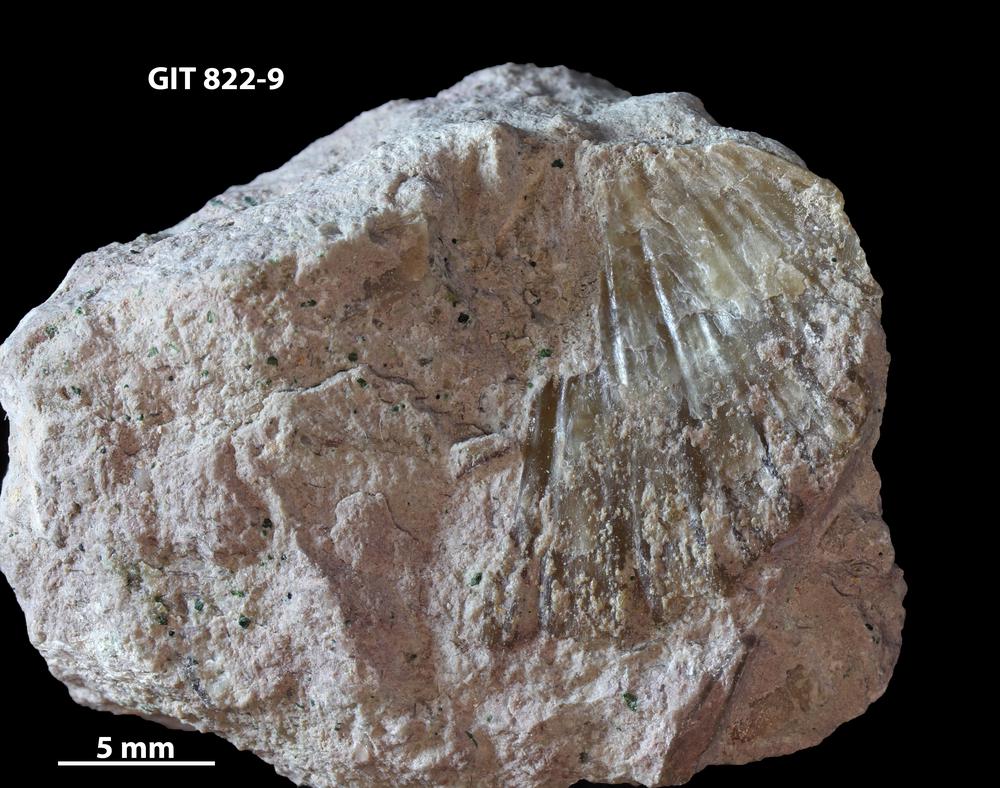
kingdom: Animalia
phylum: Brachiopoda
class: Rhynchonellata
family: Dalmanellidae
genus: Orthis
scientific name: Orthis callactis
